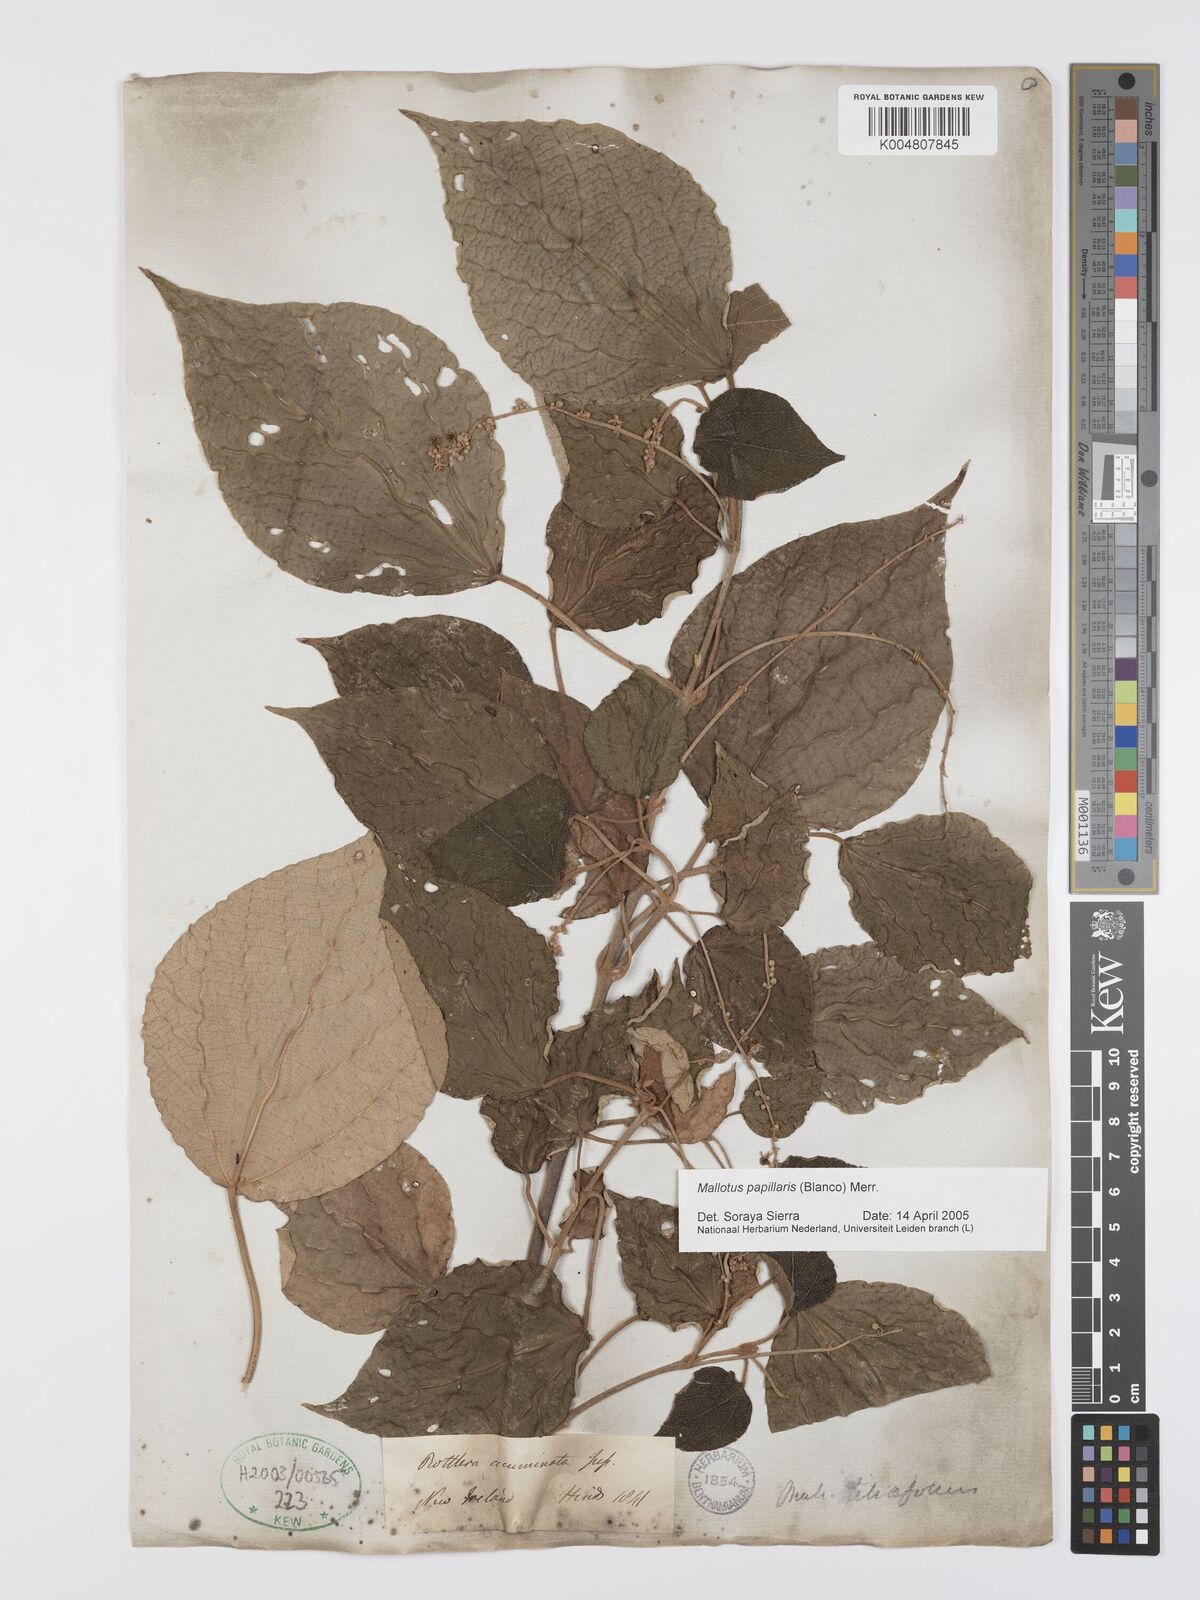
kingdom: Plantae
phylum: Tracheophyta
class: Magnoliopsida
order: Malpighiales
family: Euphorbiaceae
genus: Mallotus
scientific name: Mallotus tiliifolius
